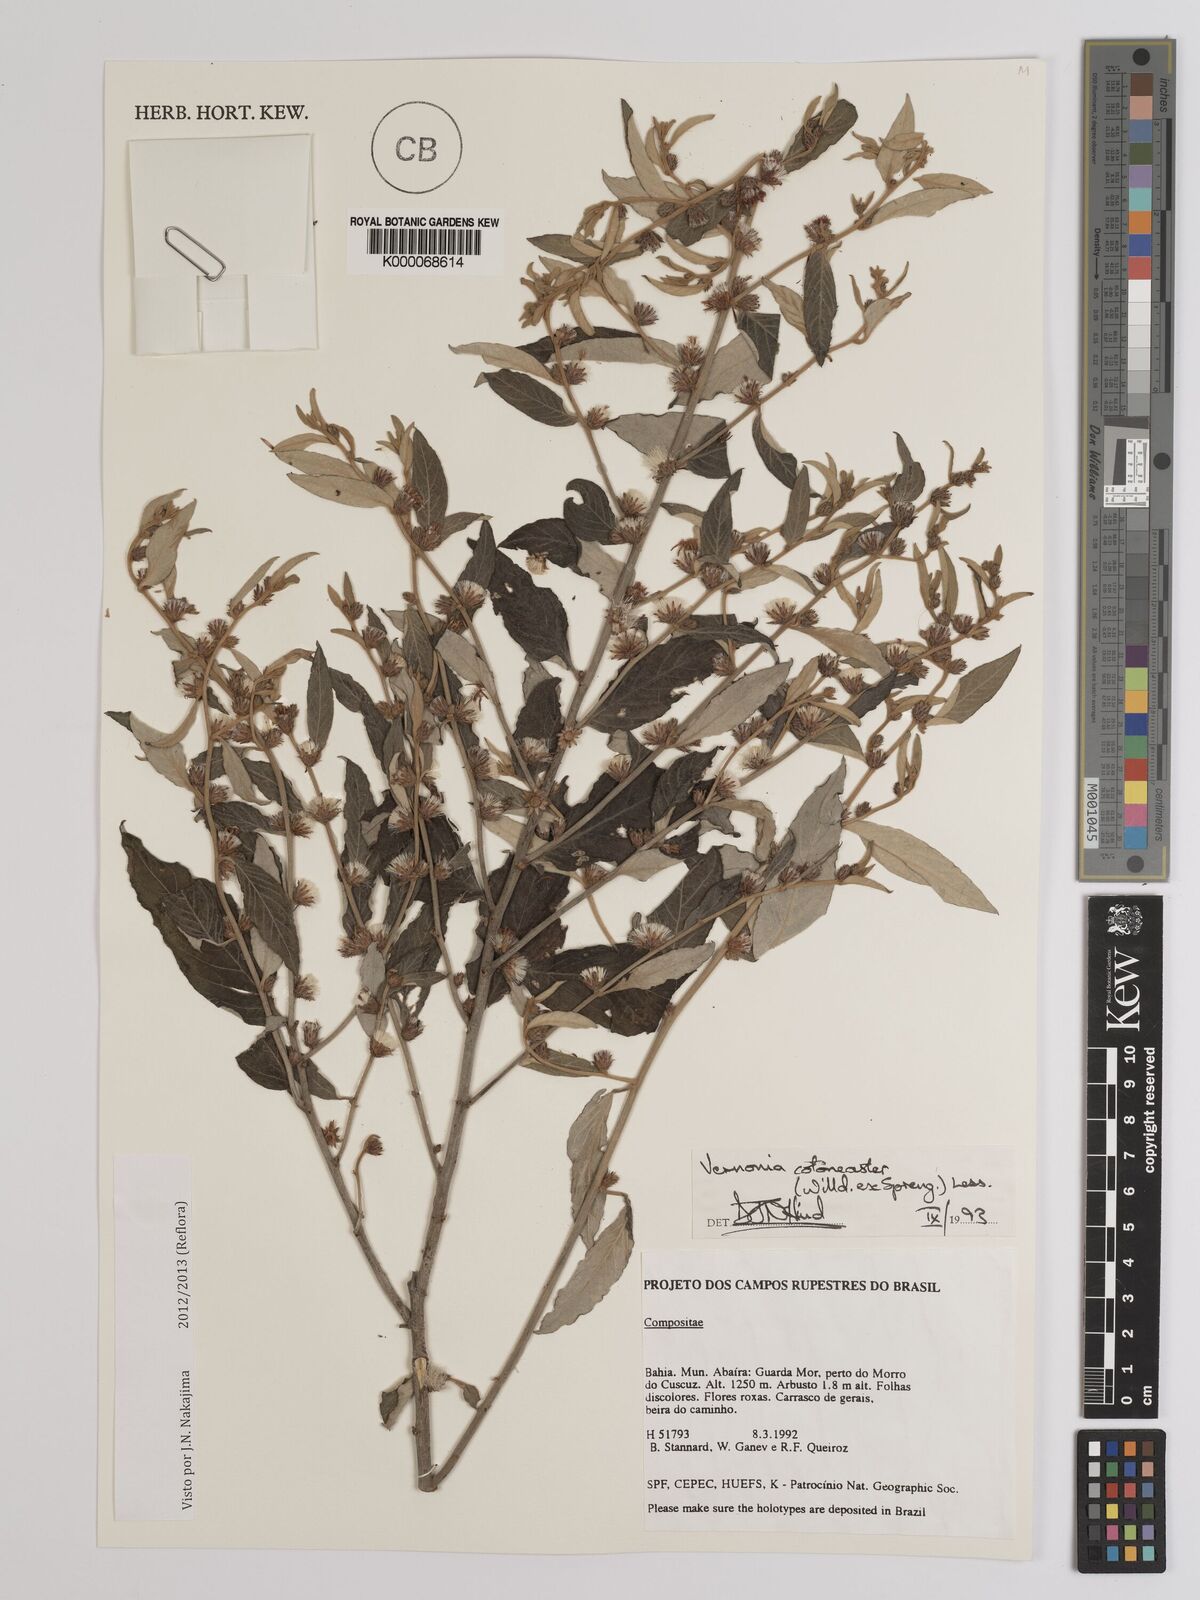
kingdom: Plantae
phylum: Tracheophyta
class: Magnoliopsida
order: Asterales
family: Asteraceae
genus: Lepidaploa
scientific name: Lepidaploa cotoneaster
